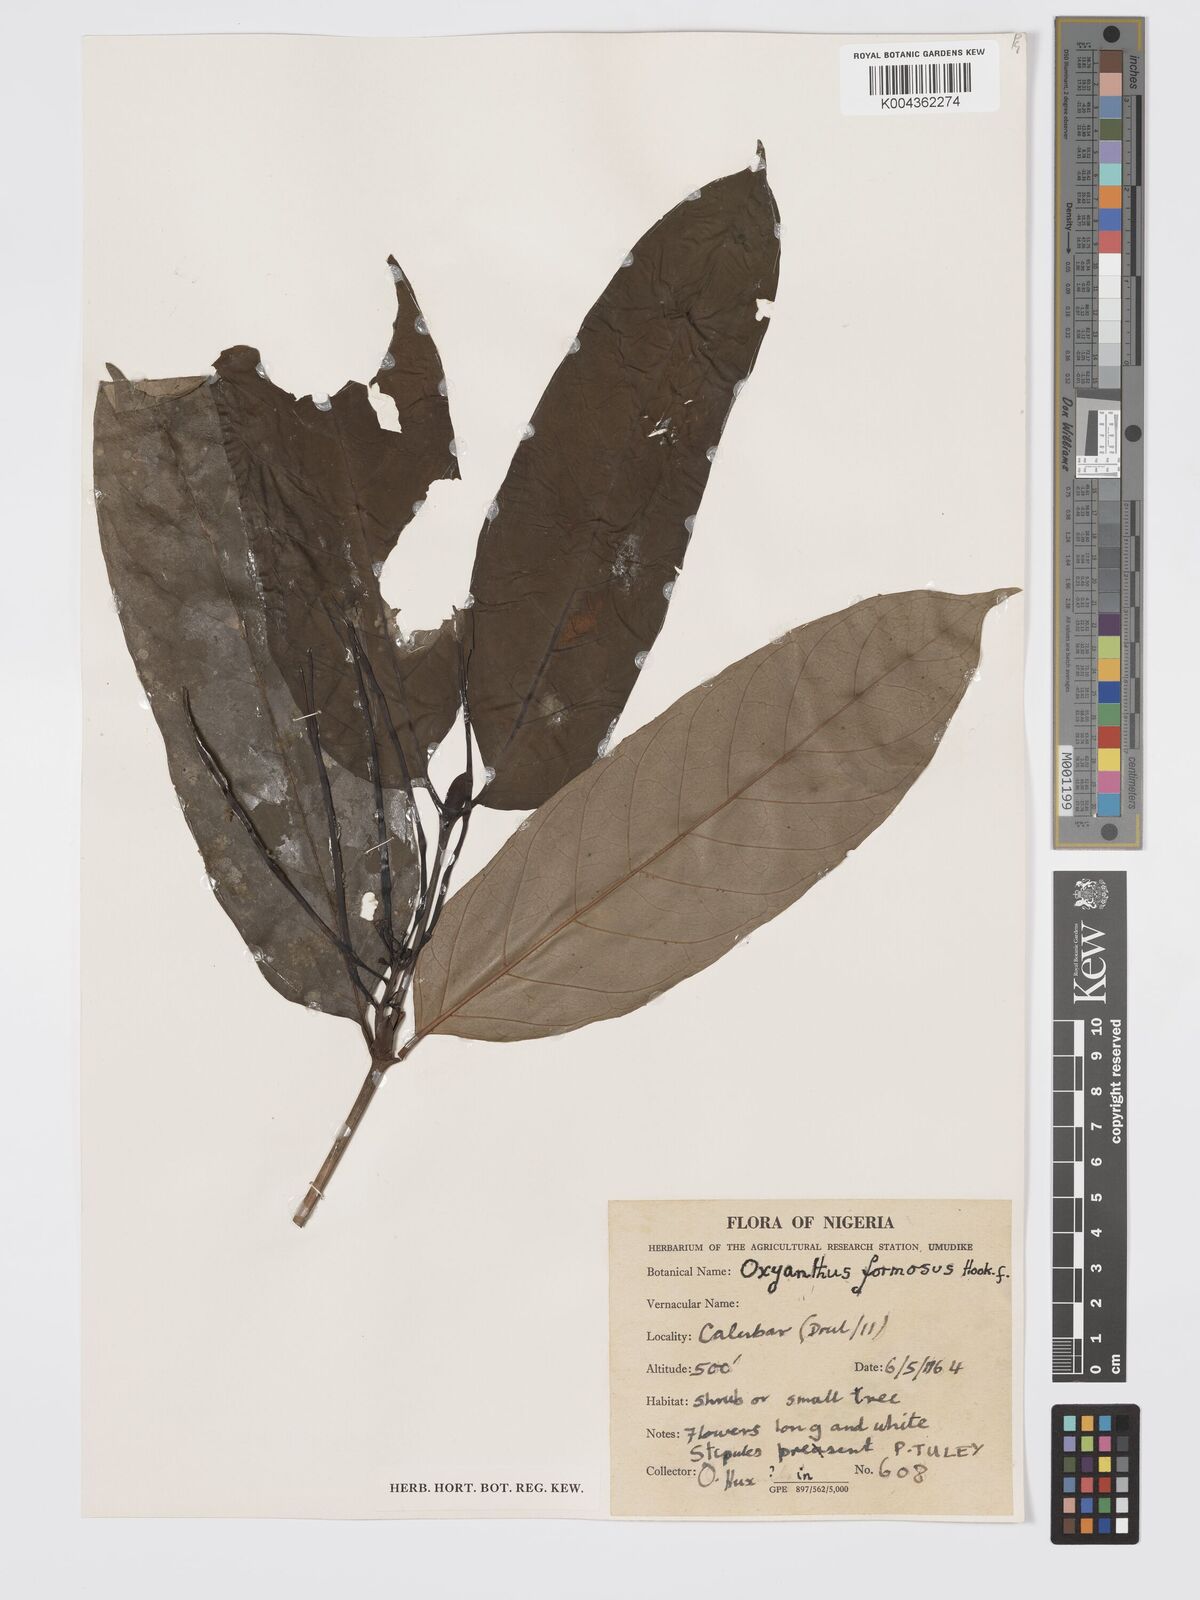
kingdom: Plantae
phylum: Tracheophyta
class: Magnoliopsida
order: Gentianales
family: Rubiaceae
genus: Oxyanthus
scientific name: Oxyanthus formosus
